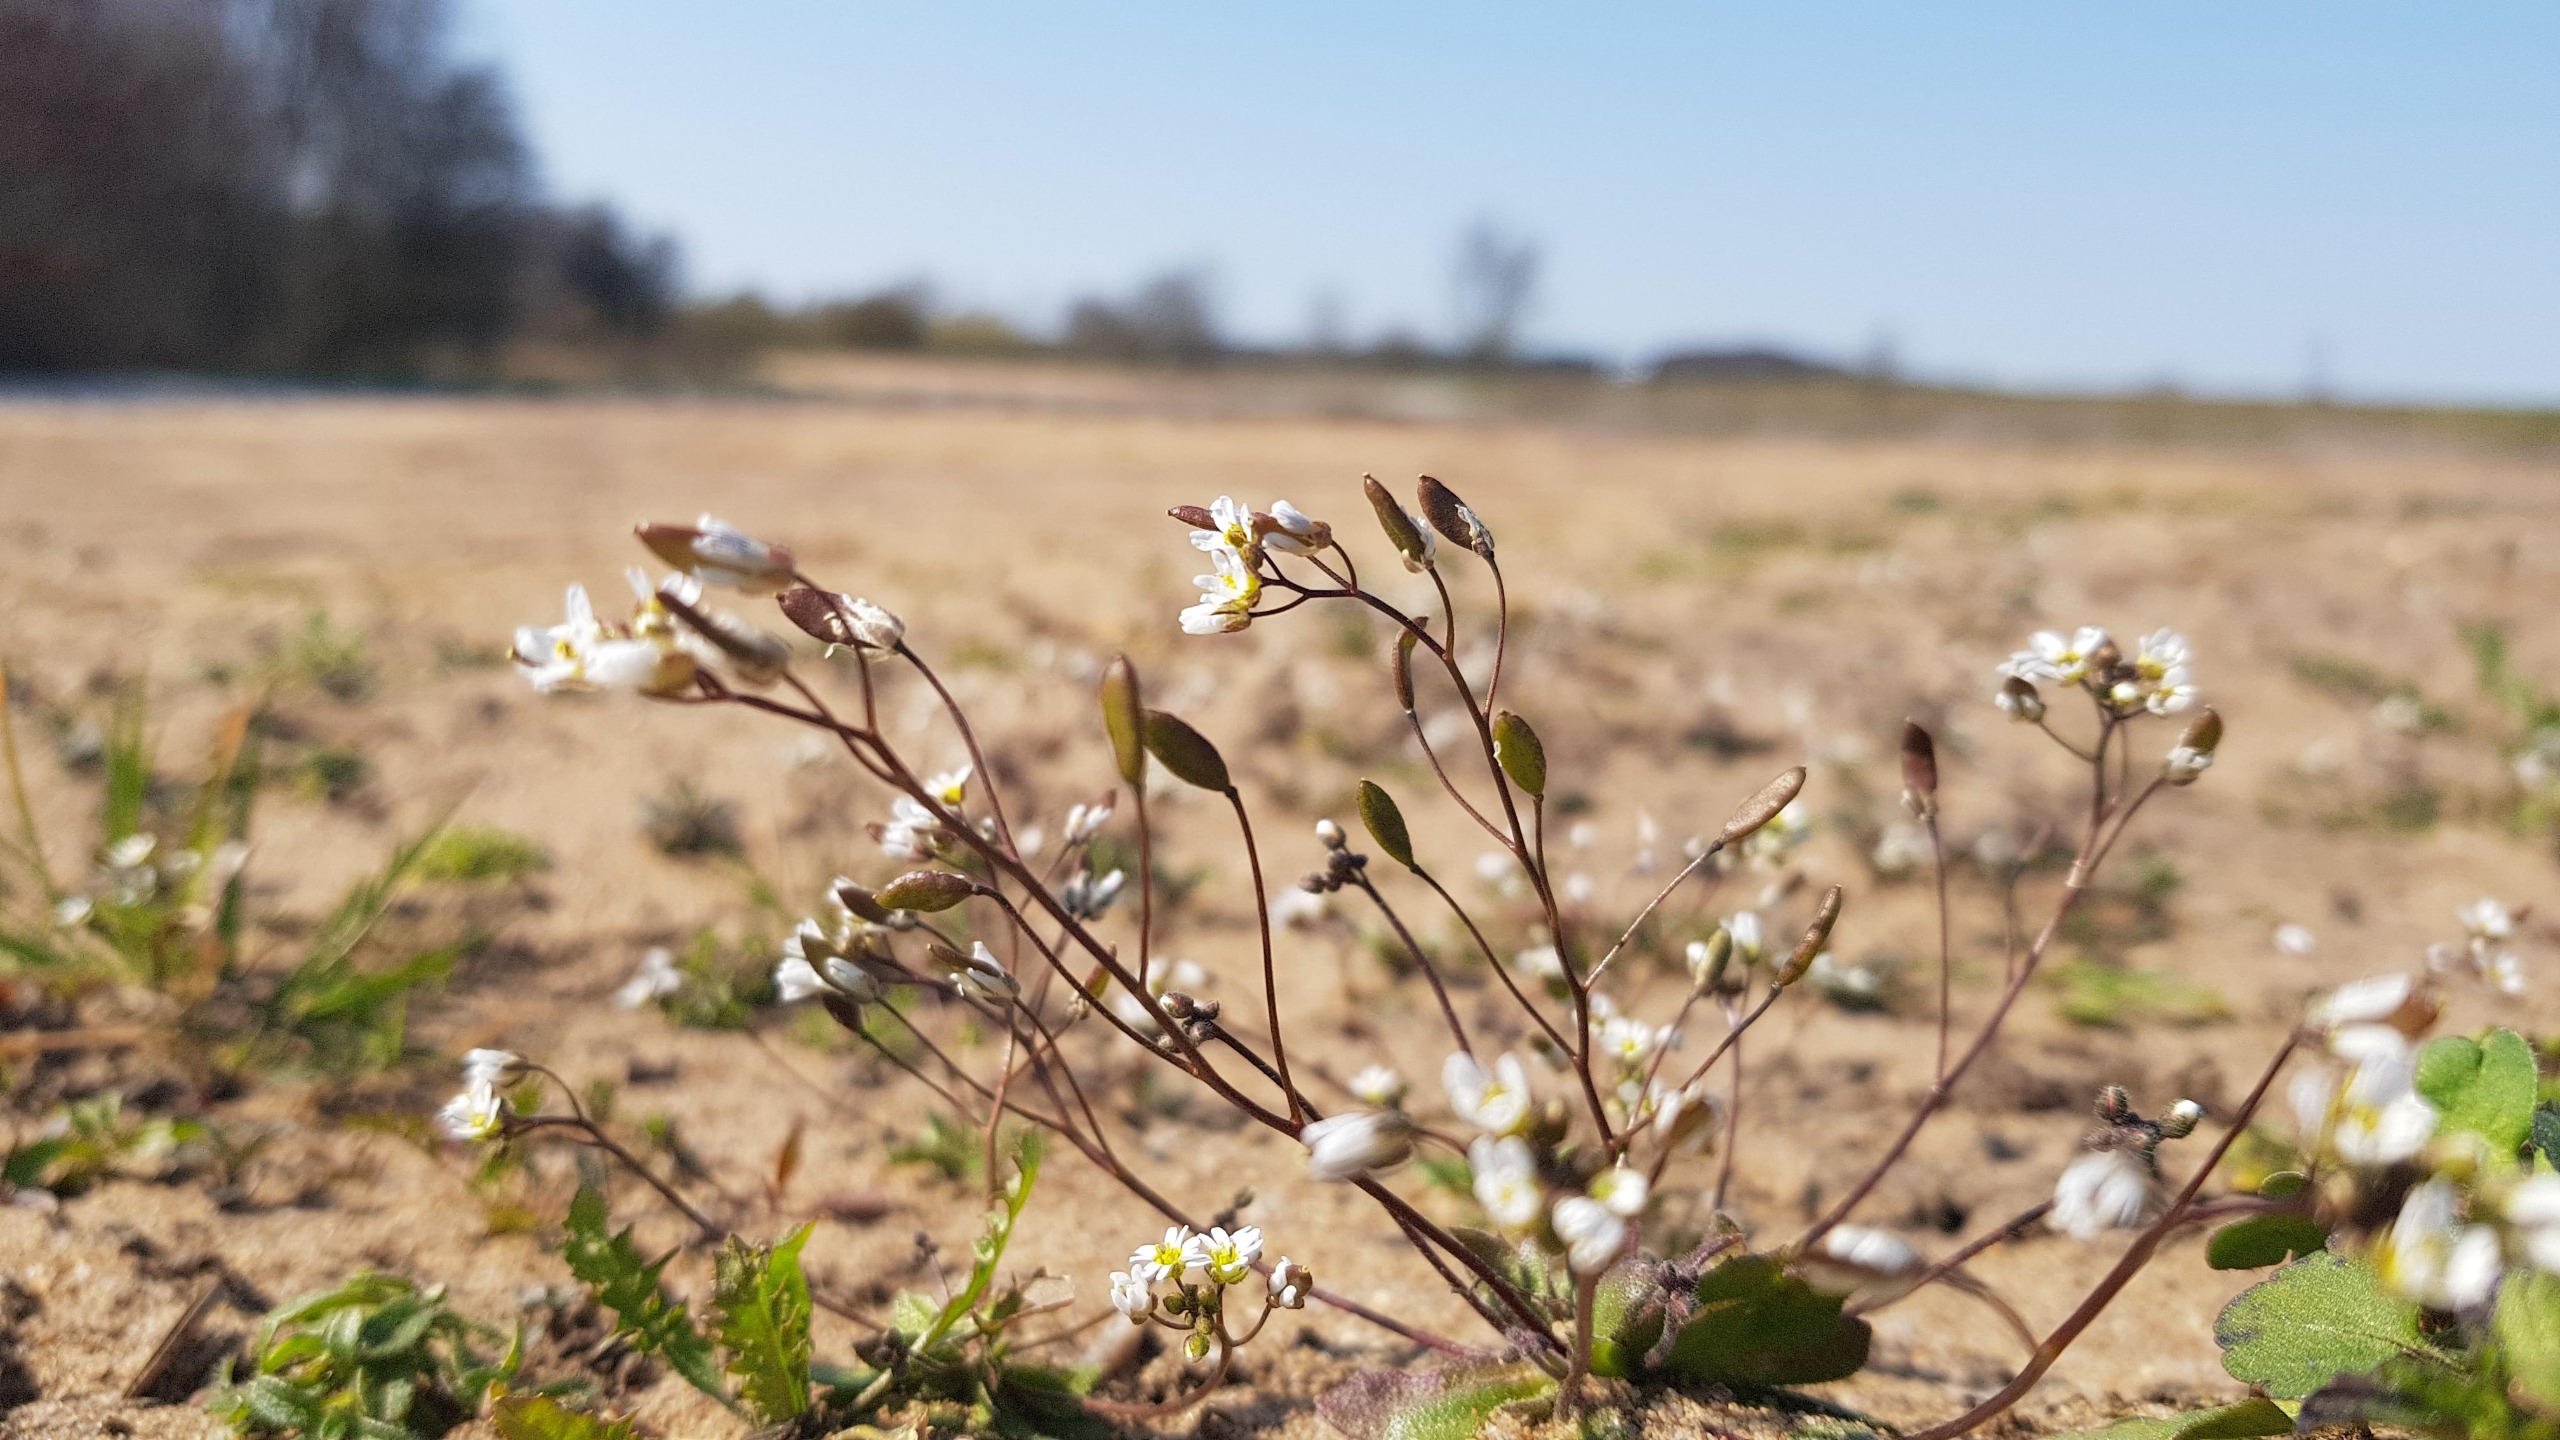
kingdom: Plantae
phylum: Tracheophyta
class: Magnoliopsida
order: Brassicales
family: Brassicaceae
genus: Draba
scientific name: Draba verna
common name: Vår-gæslingeblomst
